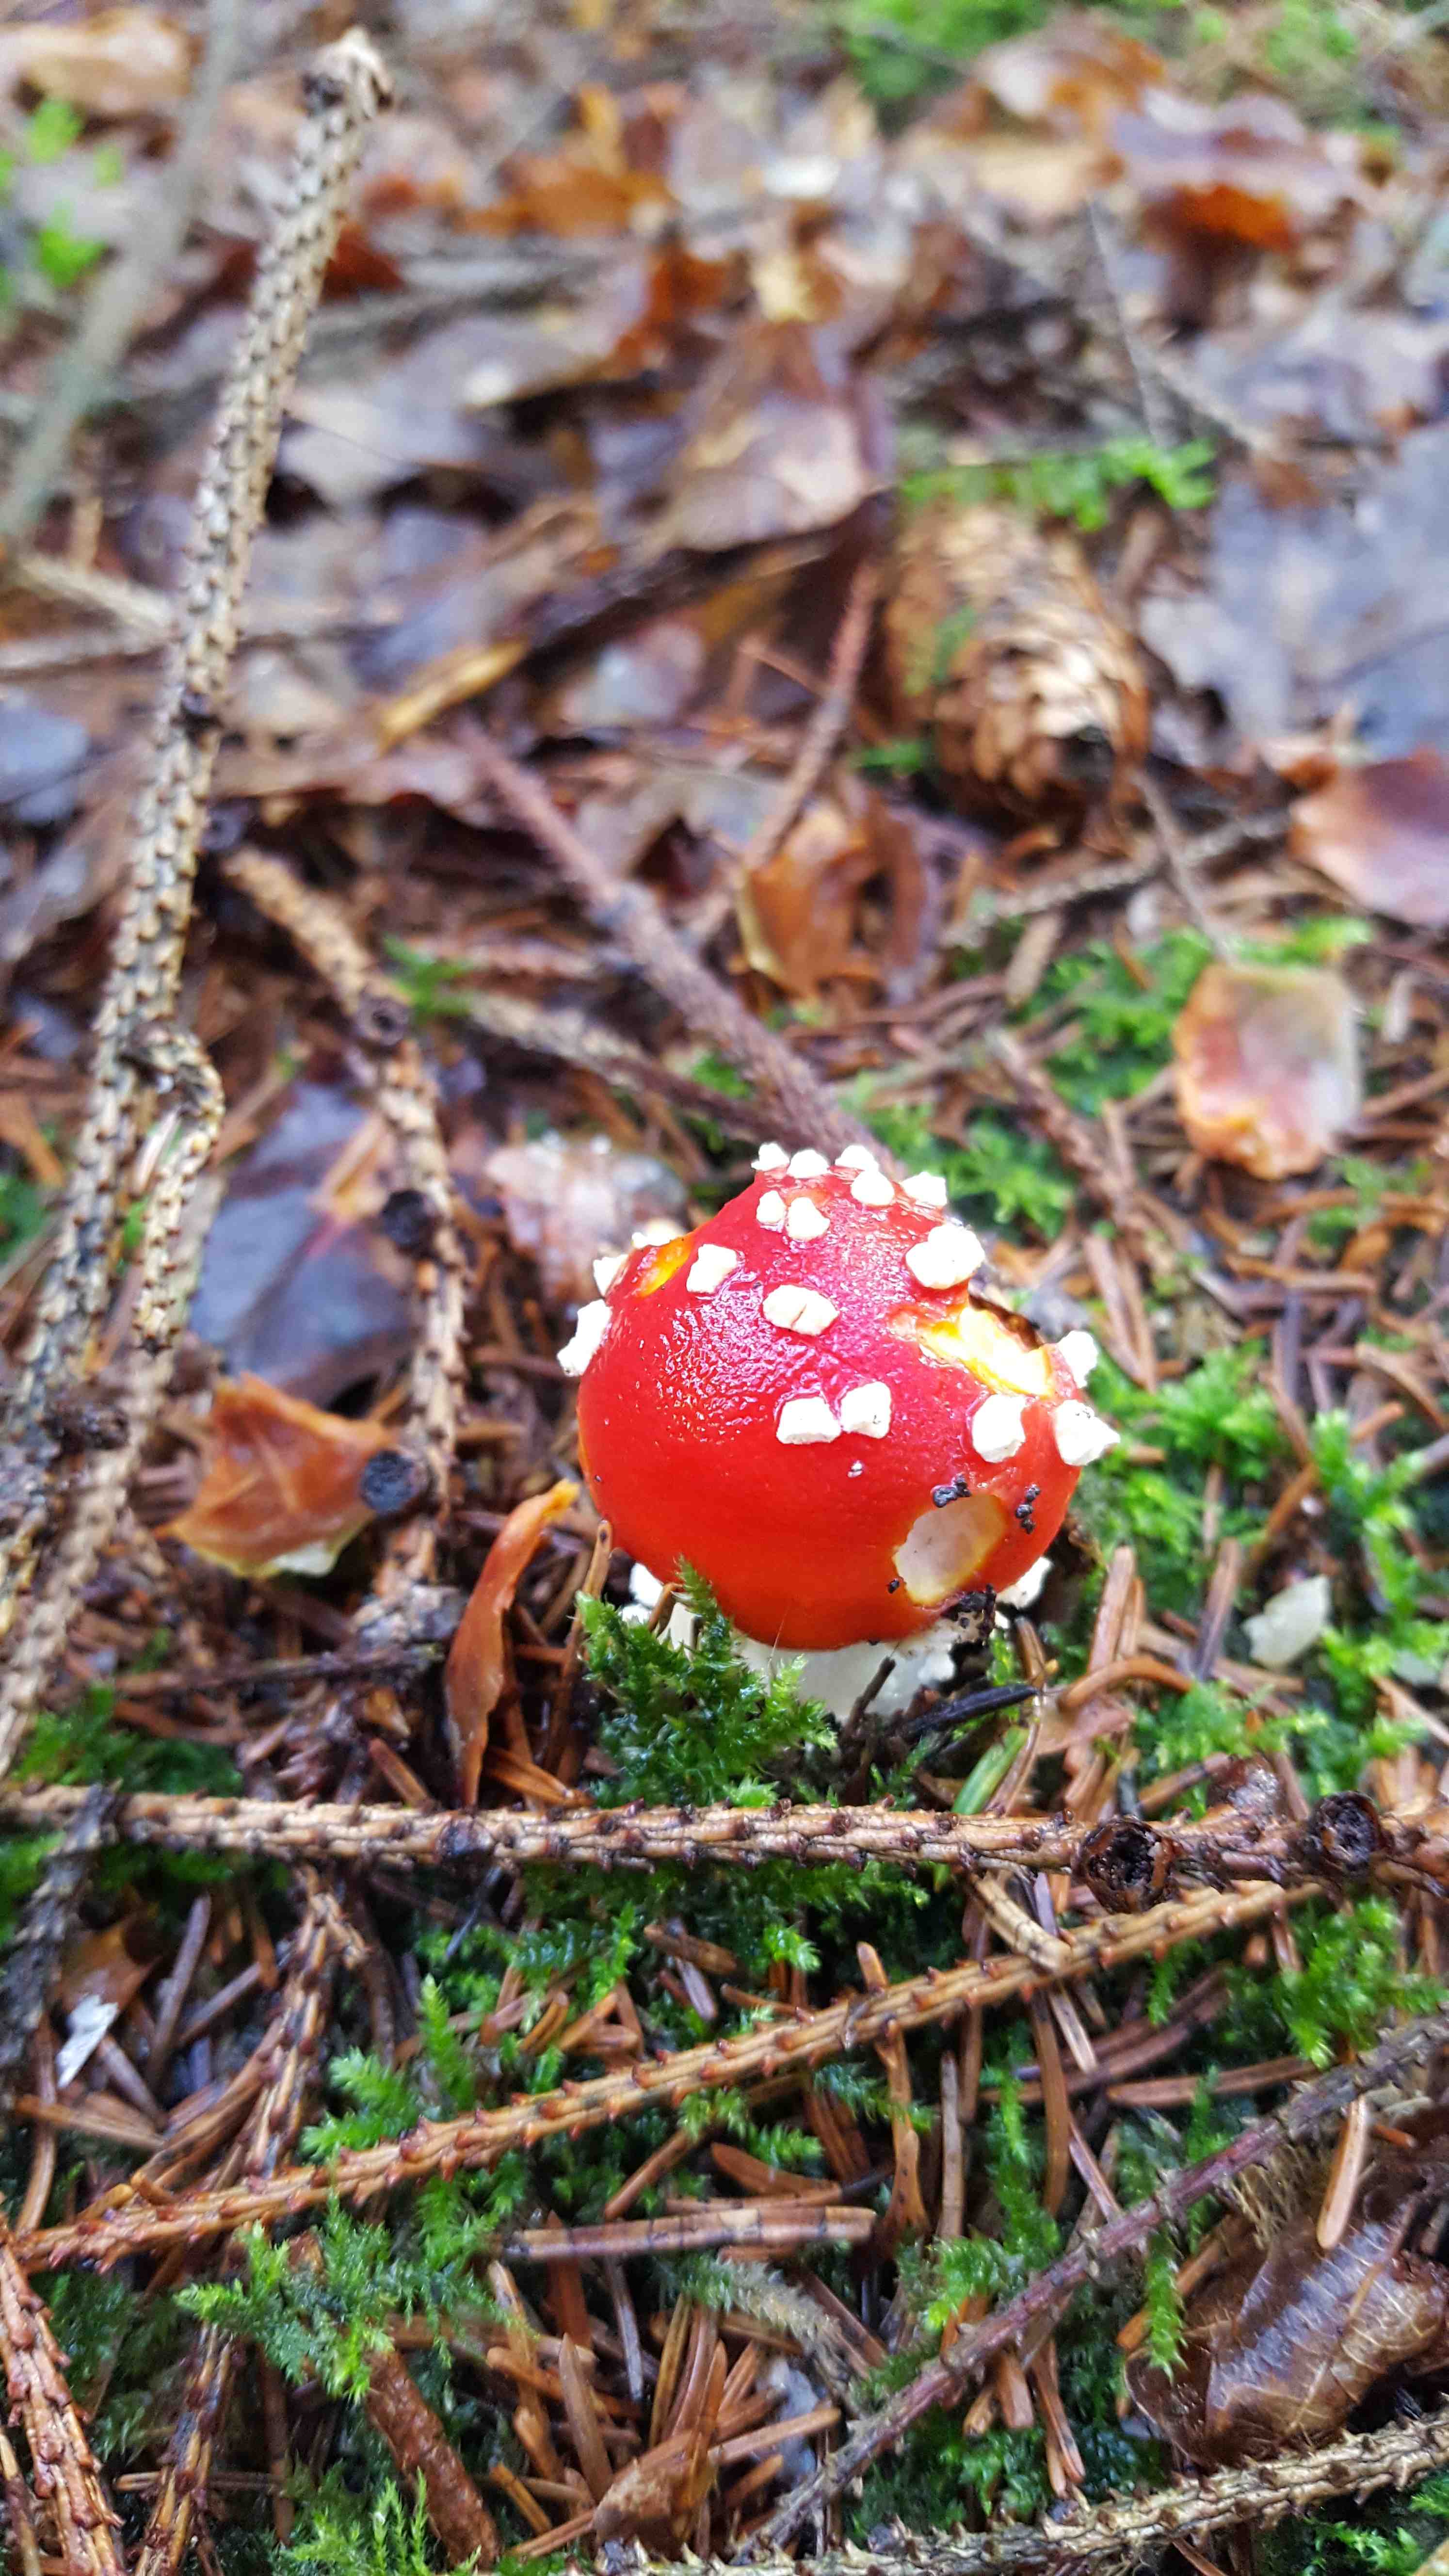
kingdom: Fungi
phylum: Basidiomycota
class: Agaricomycetes
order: Agaricales
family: Amanitaceae
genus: Amanita
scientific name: Amanita muscaria
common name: rød fluesvamp
